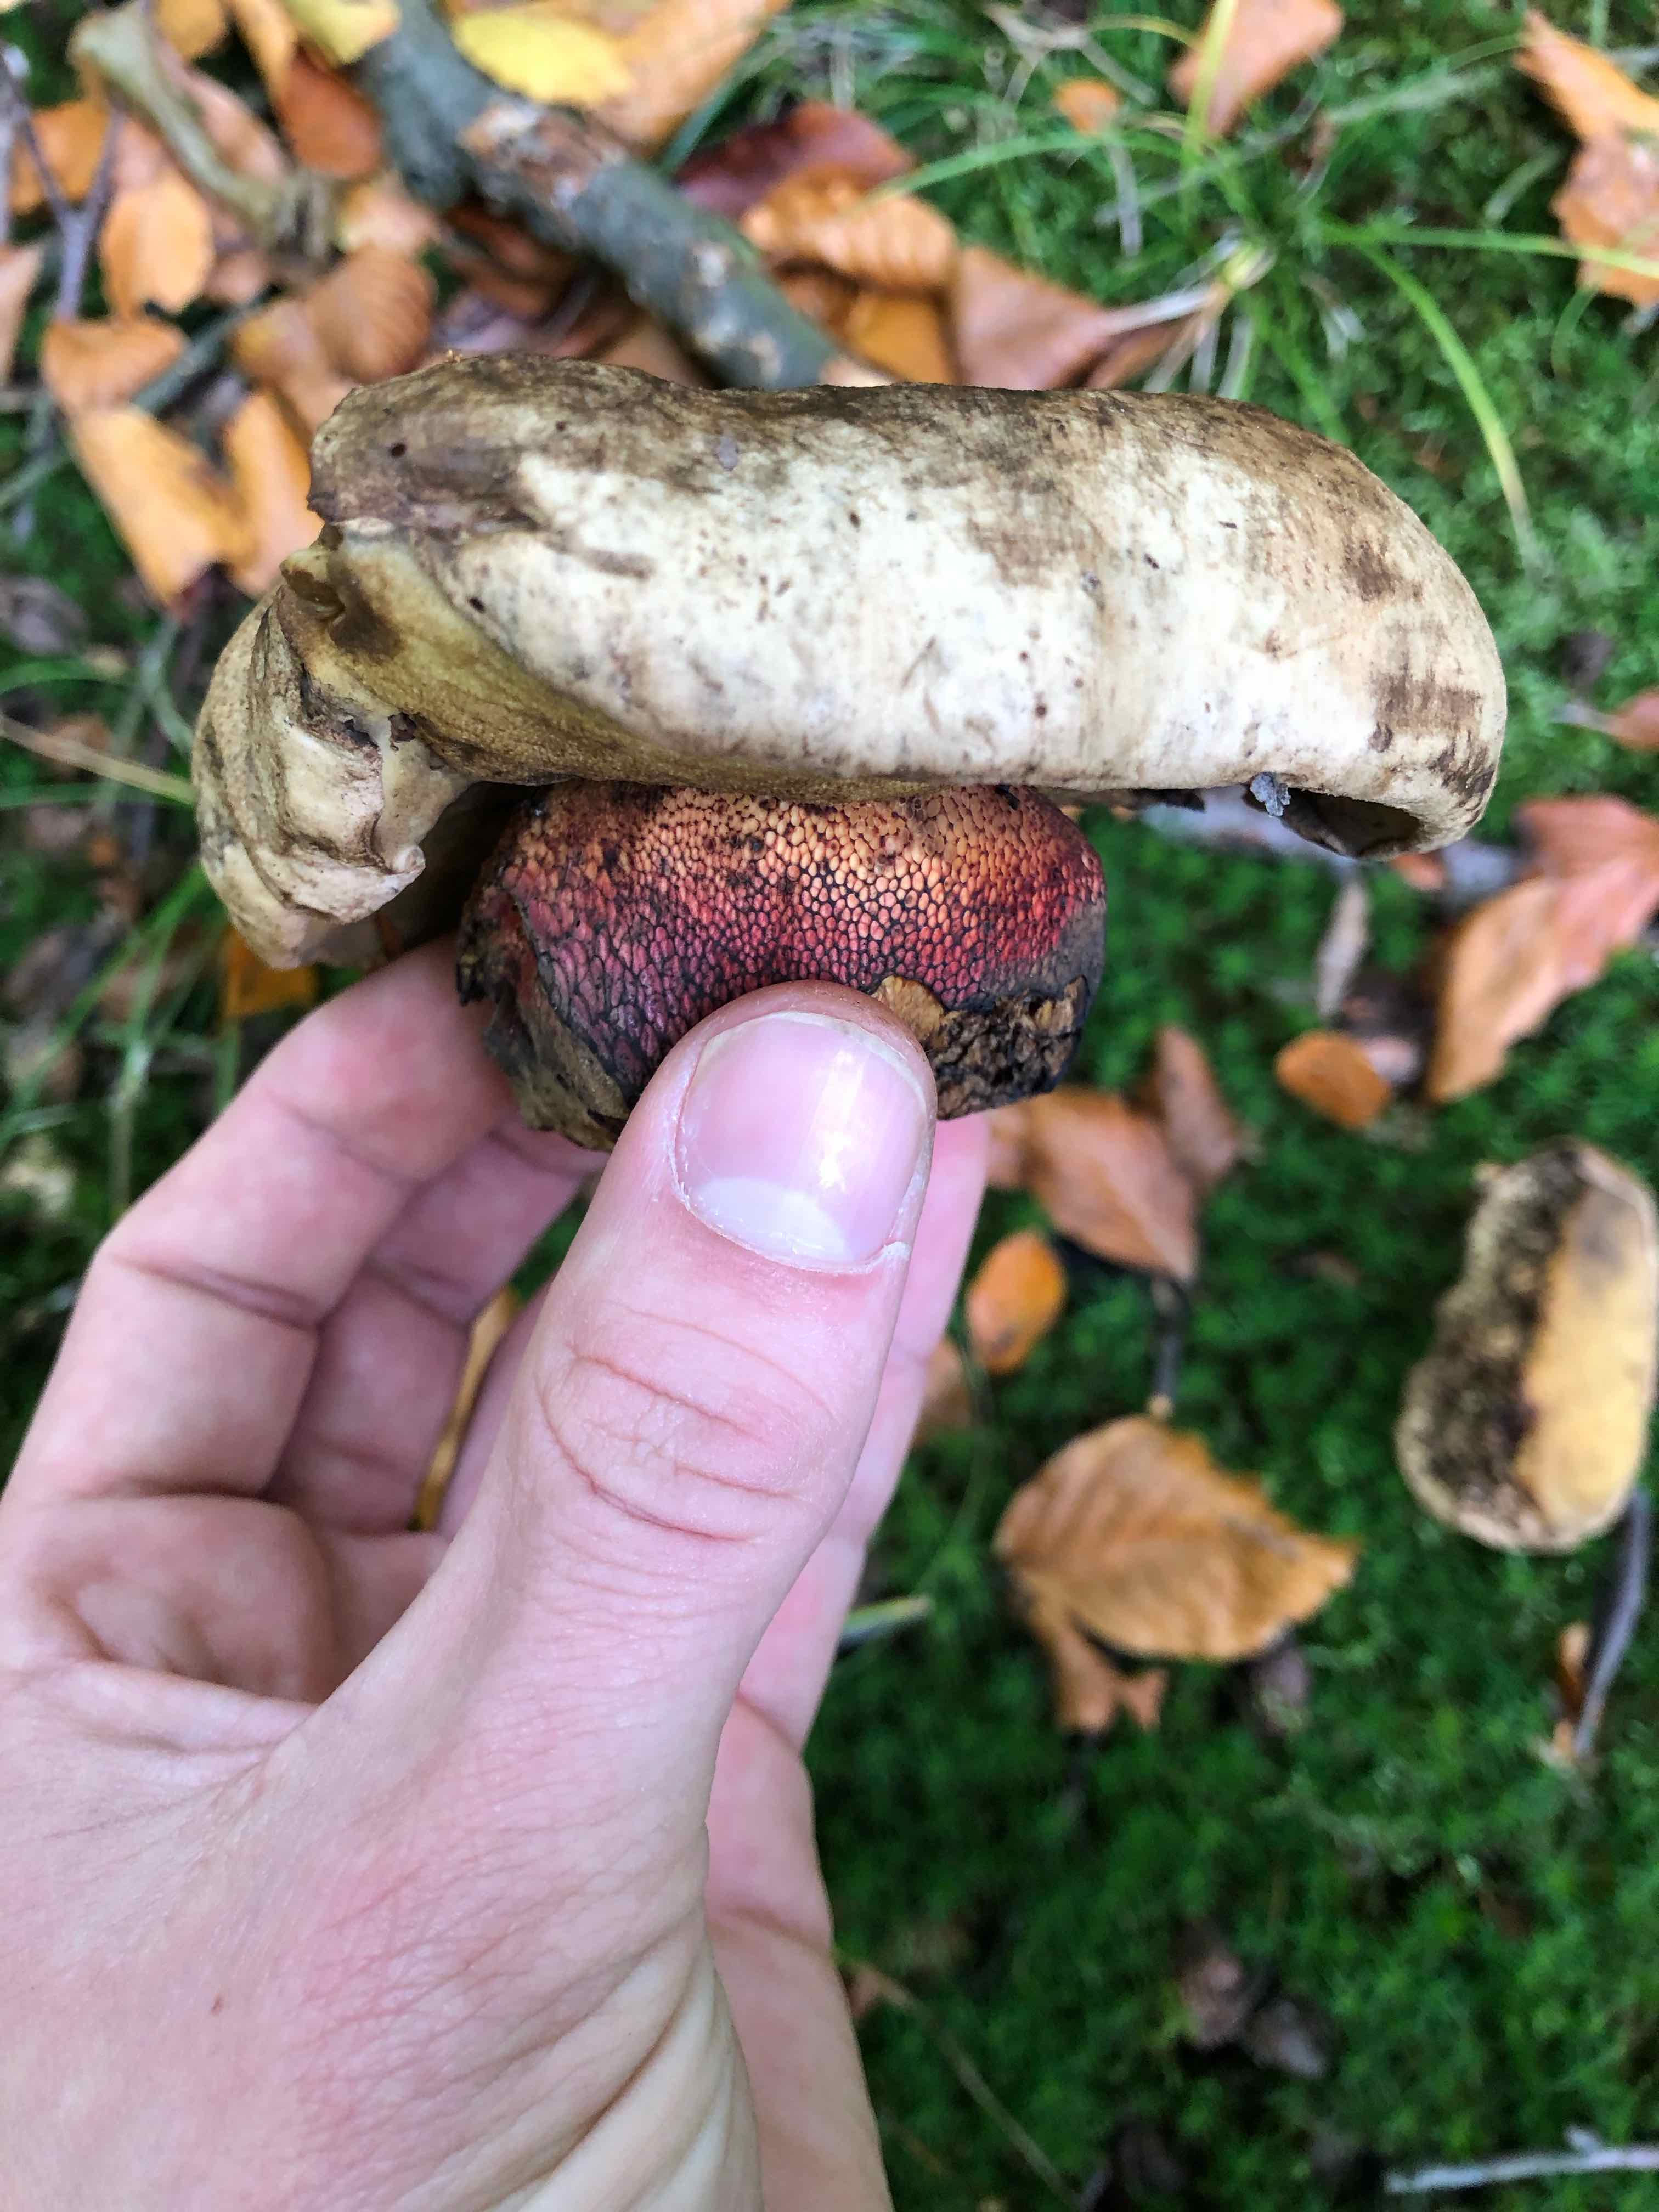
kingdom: Fungi
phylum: Basidiomycota
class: Agaricomycetes
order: Boletales
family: Boletaceae
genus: Caloboletus
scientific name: Caloboletus calopus
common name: skønfodet rørhat
